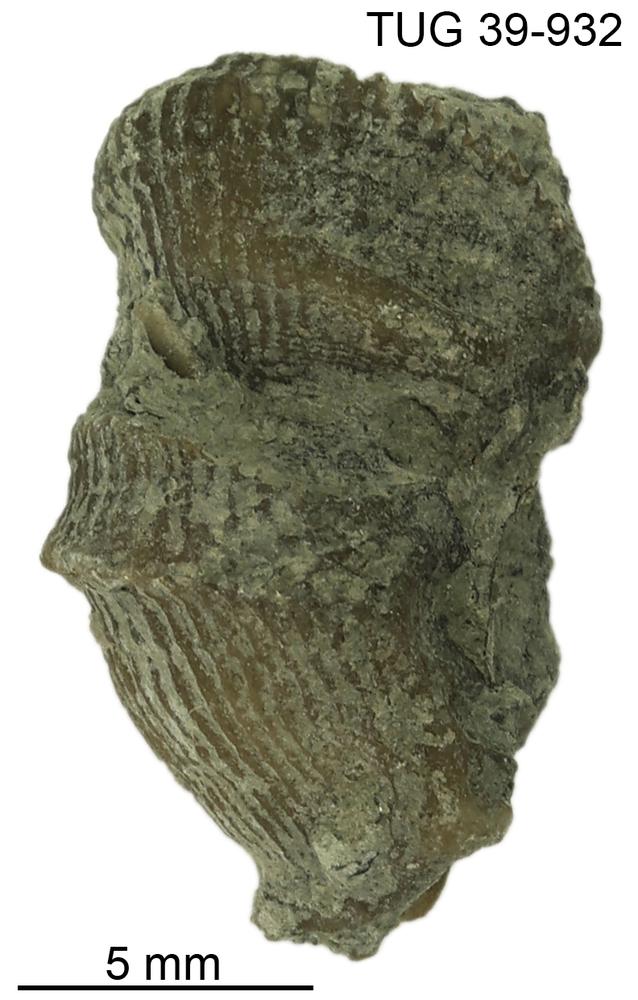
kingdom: Animalia
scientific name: Animalia
